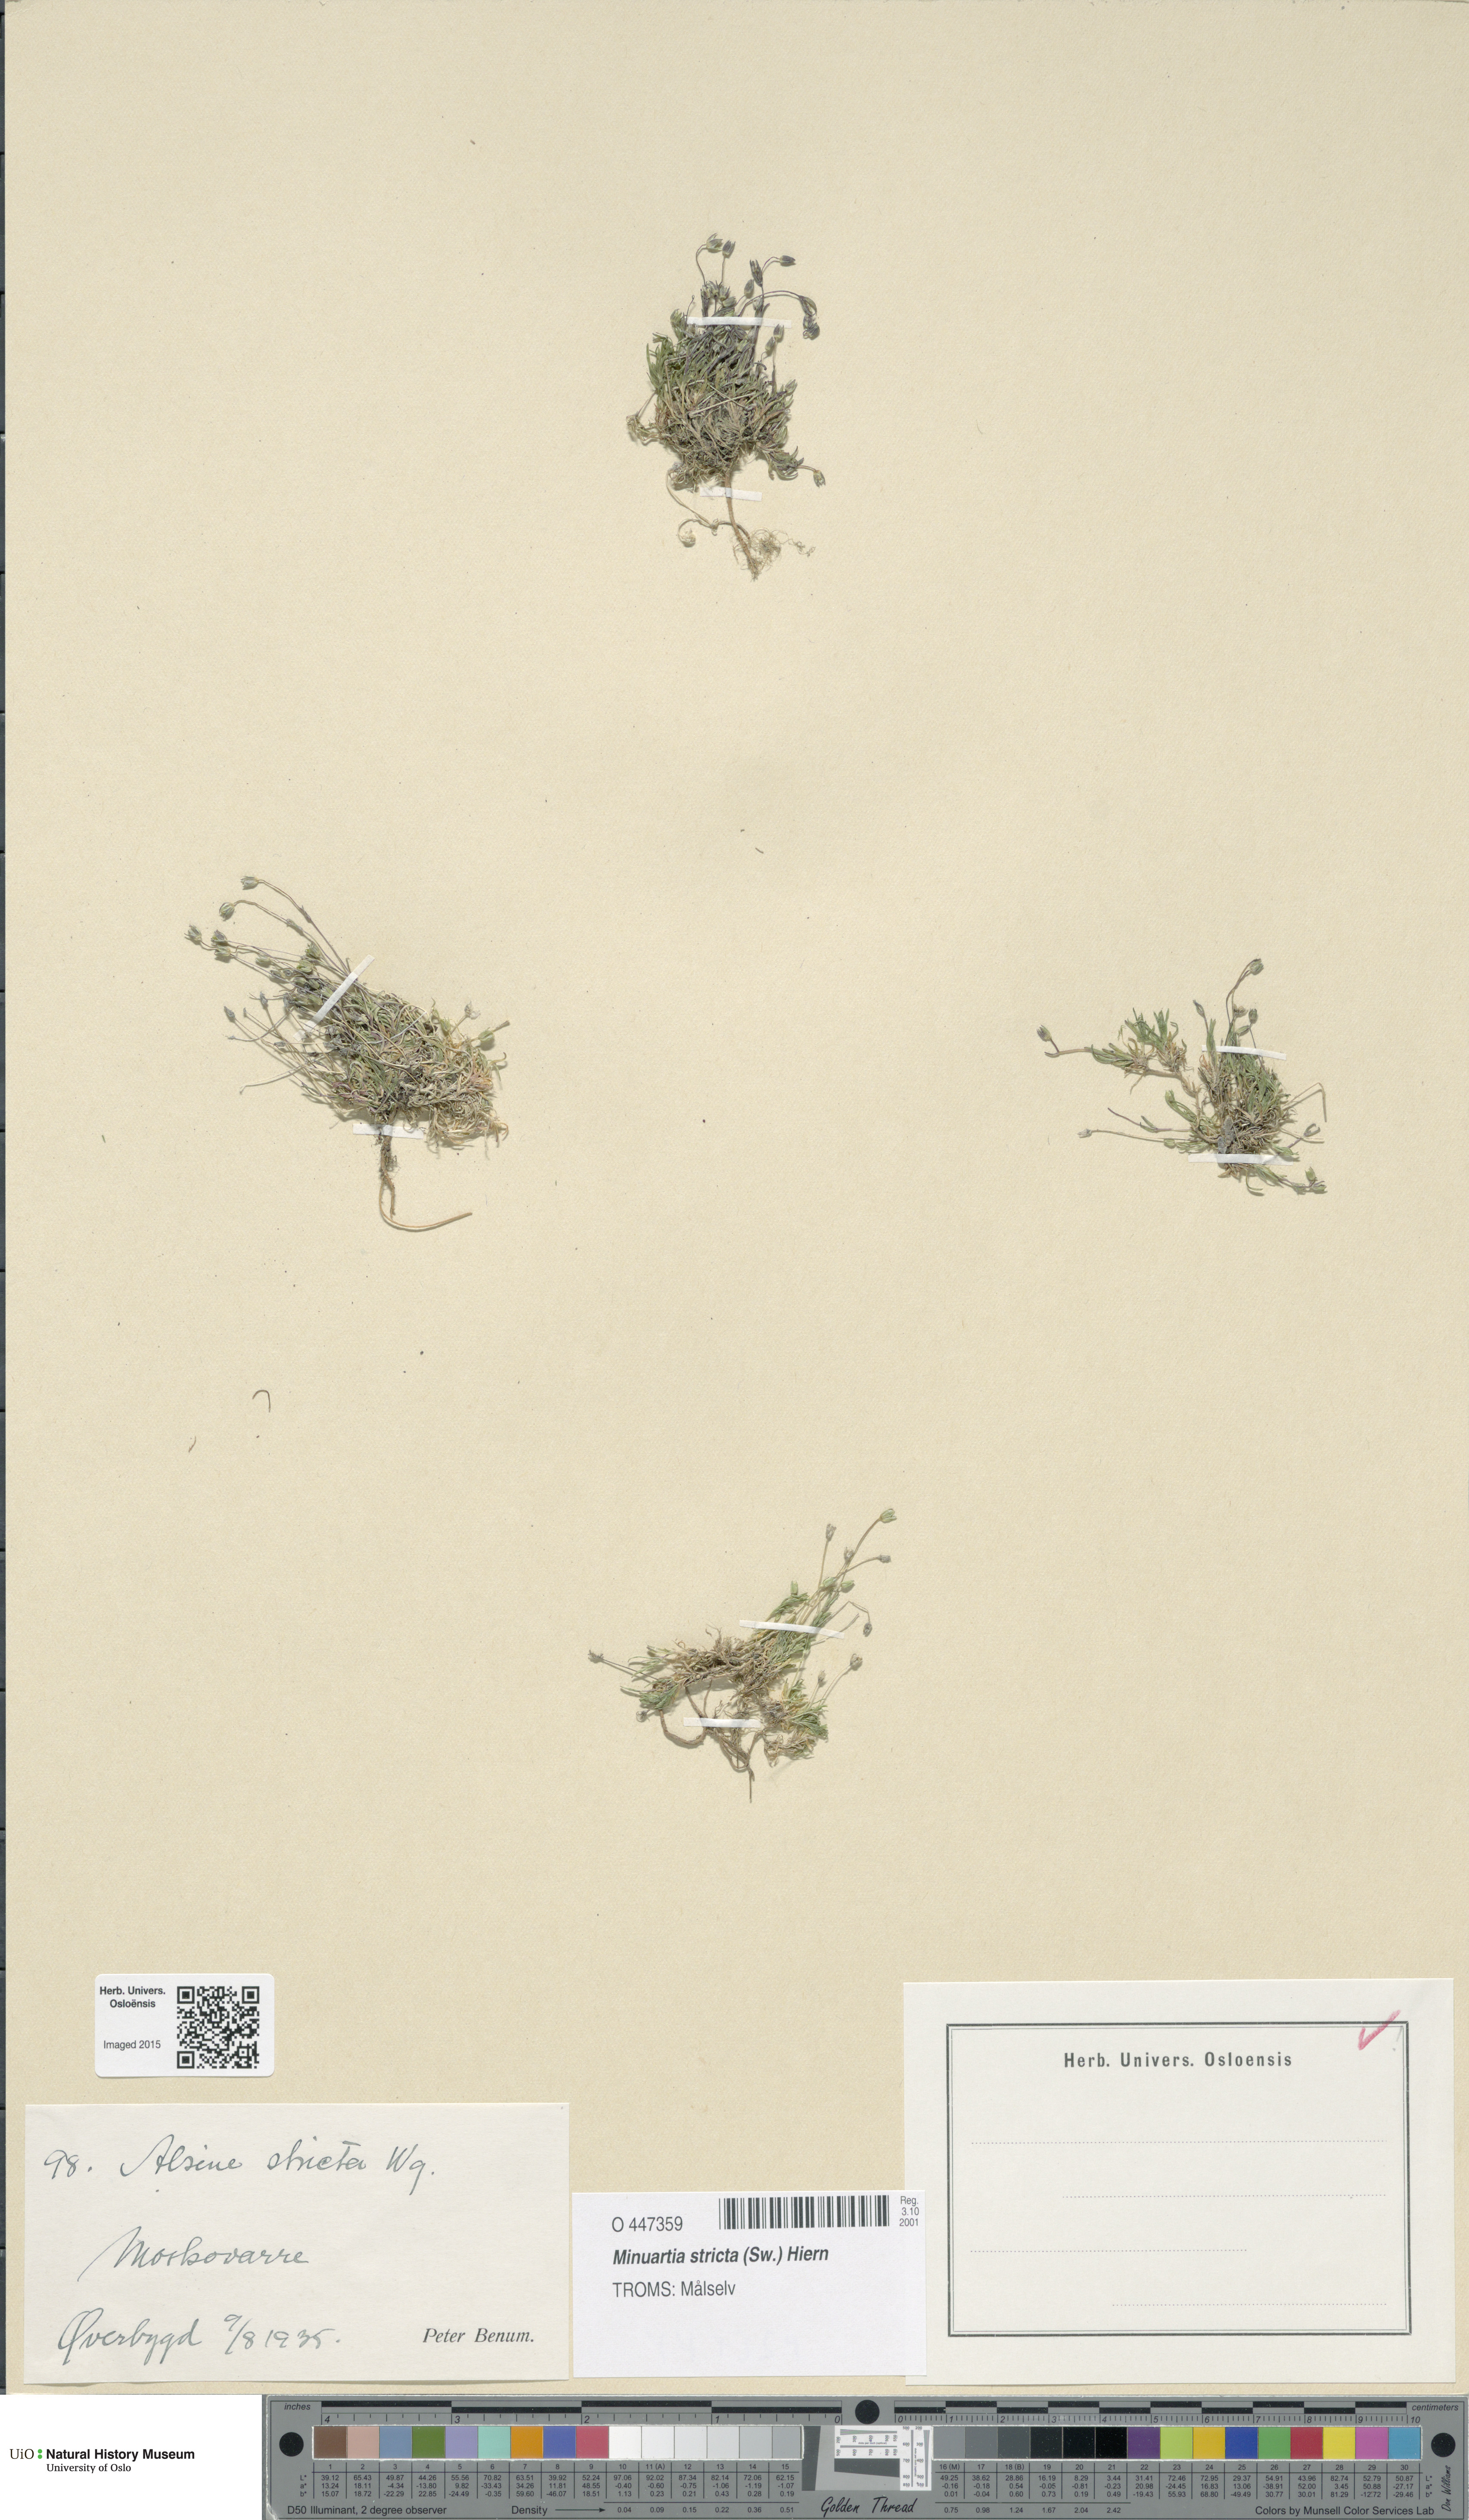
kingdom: Plantae
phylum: Tracheophyta
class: Magnoliopsida
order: Caryophyllales
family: Caryophyllaceae
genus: Sabulina
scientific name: Sabulina stricta
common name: Bog sandwort
